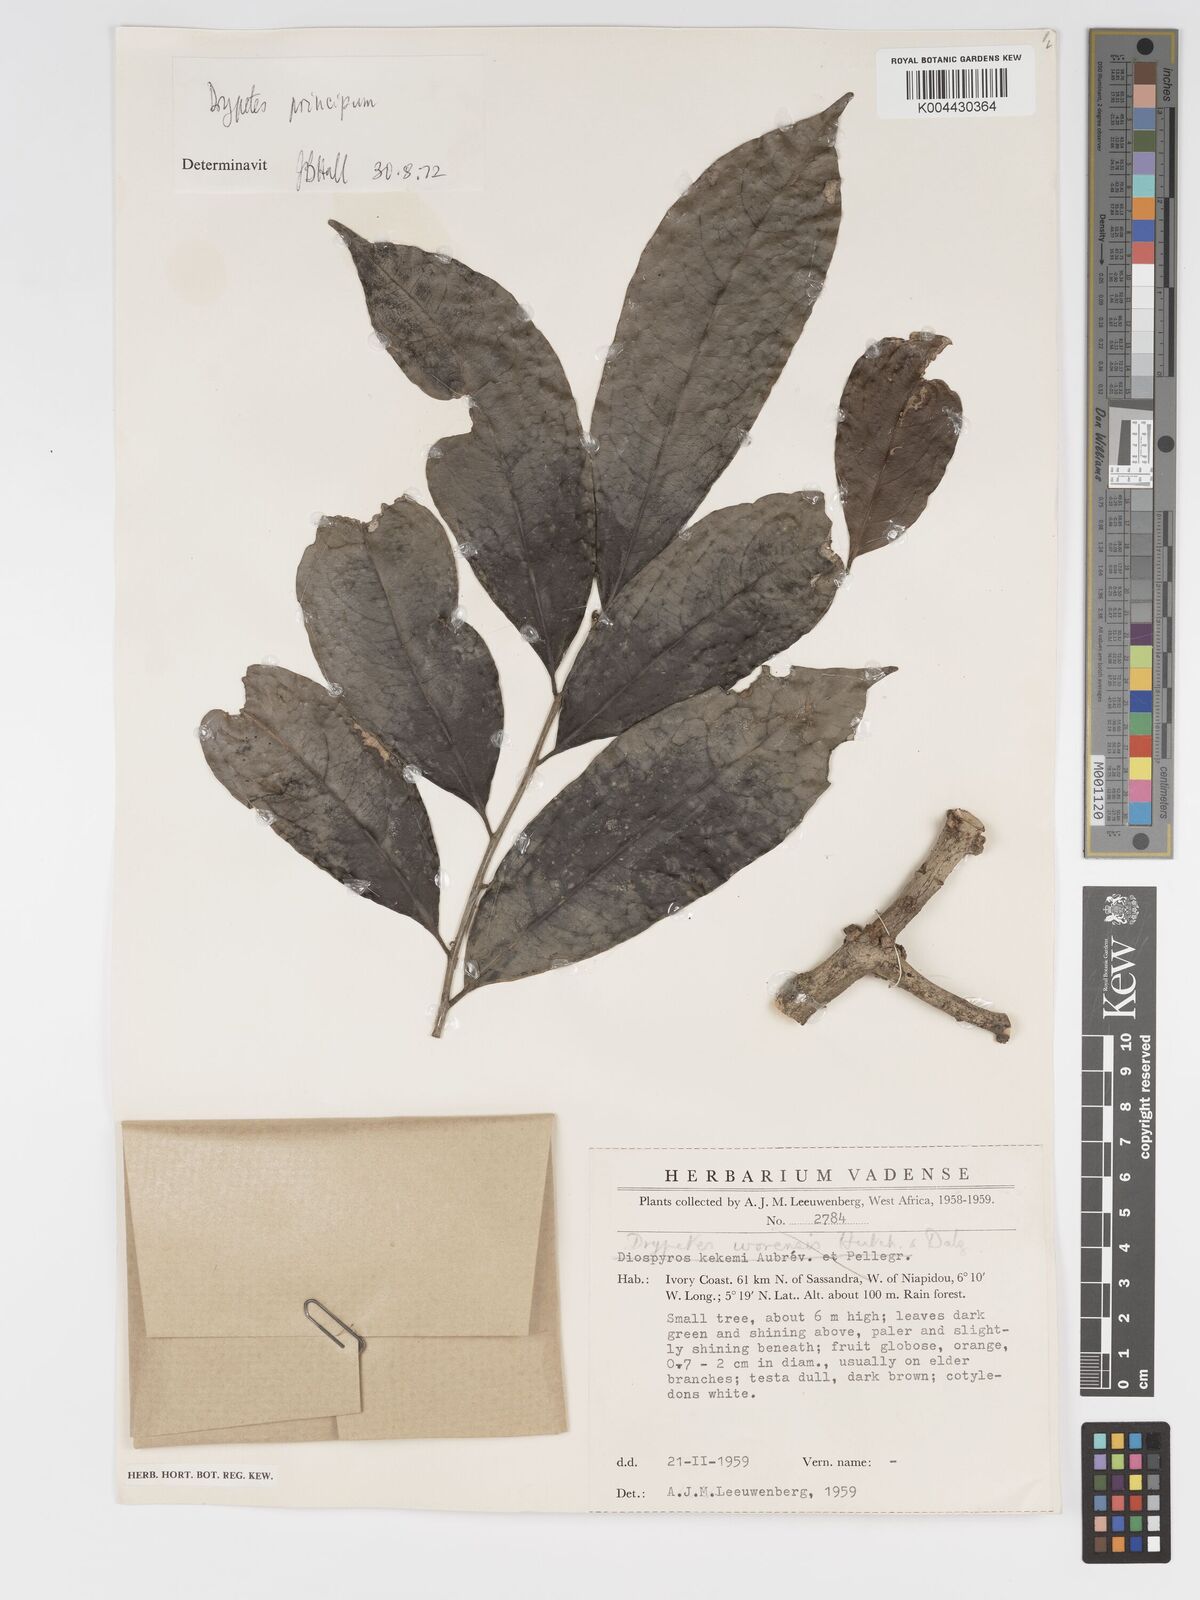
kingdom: Plantae
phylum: Tracheophyta
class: Magnoliopsida
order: Malpighiales
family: Putranjivaceae
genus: Drypetes
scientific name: Drypetes principum
